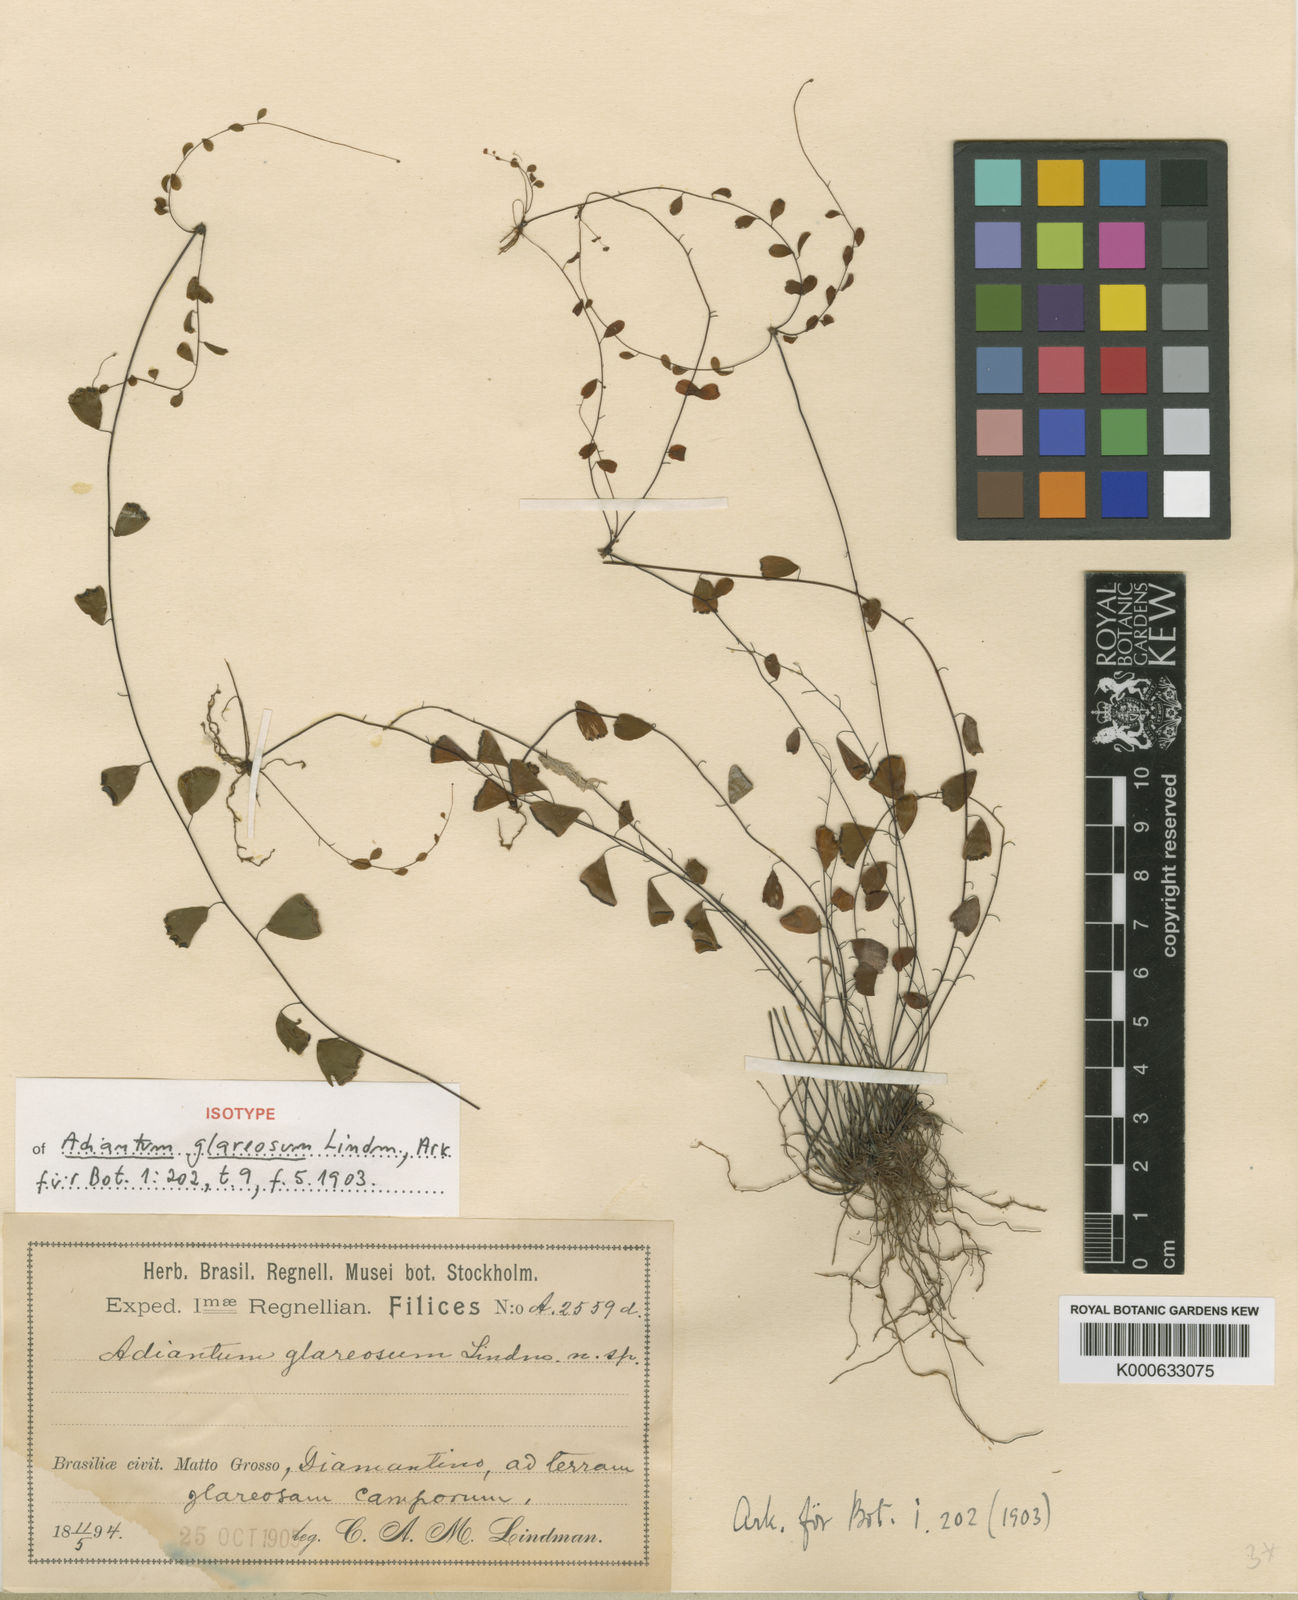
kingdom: Plantae
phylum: Tracheophyta
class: Polypodiopsida
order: Polypodiales
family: Pteridaceae
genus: Adiantum
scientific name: Adiantum filiforme
